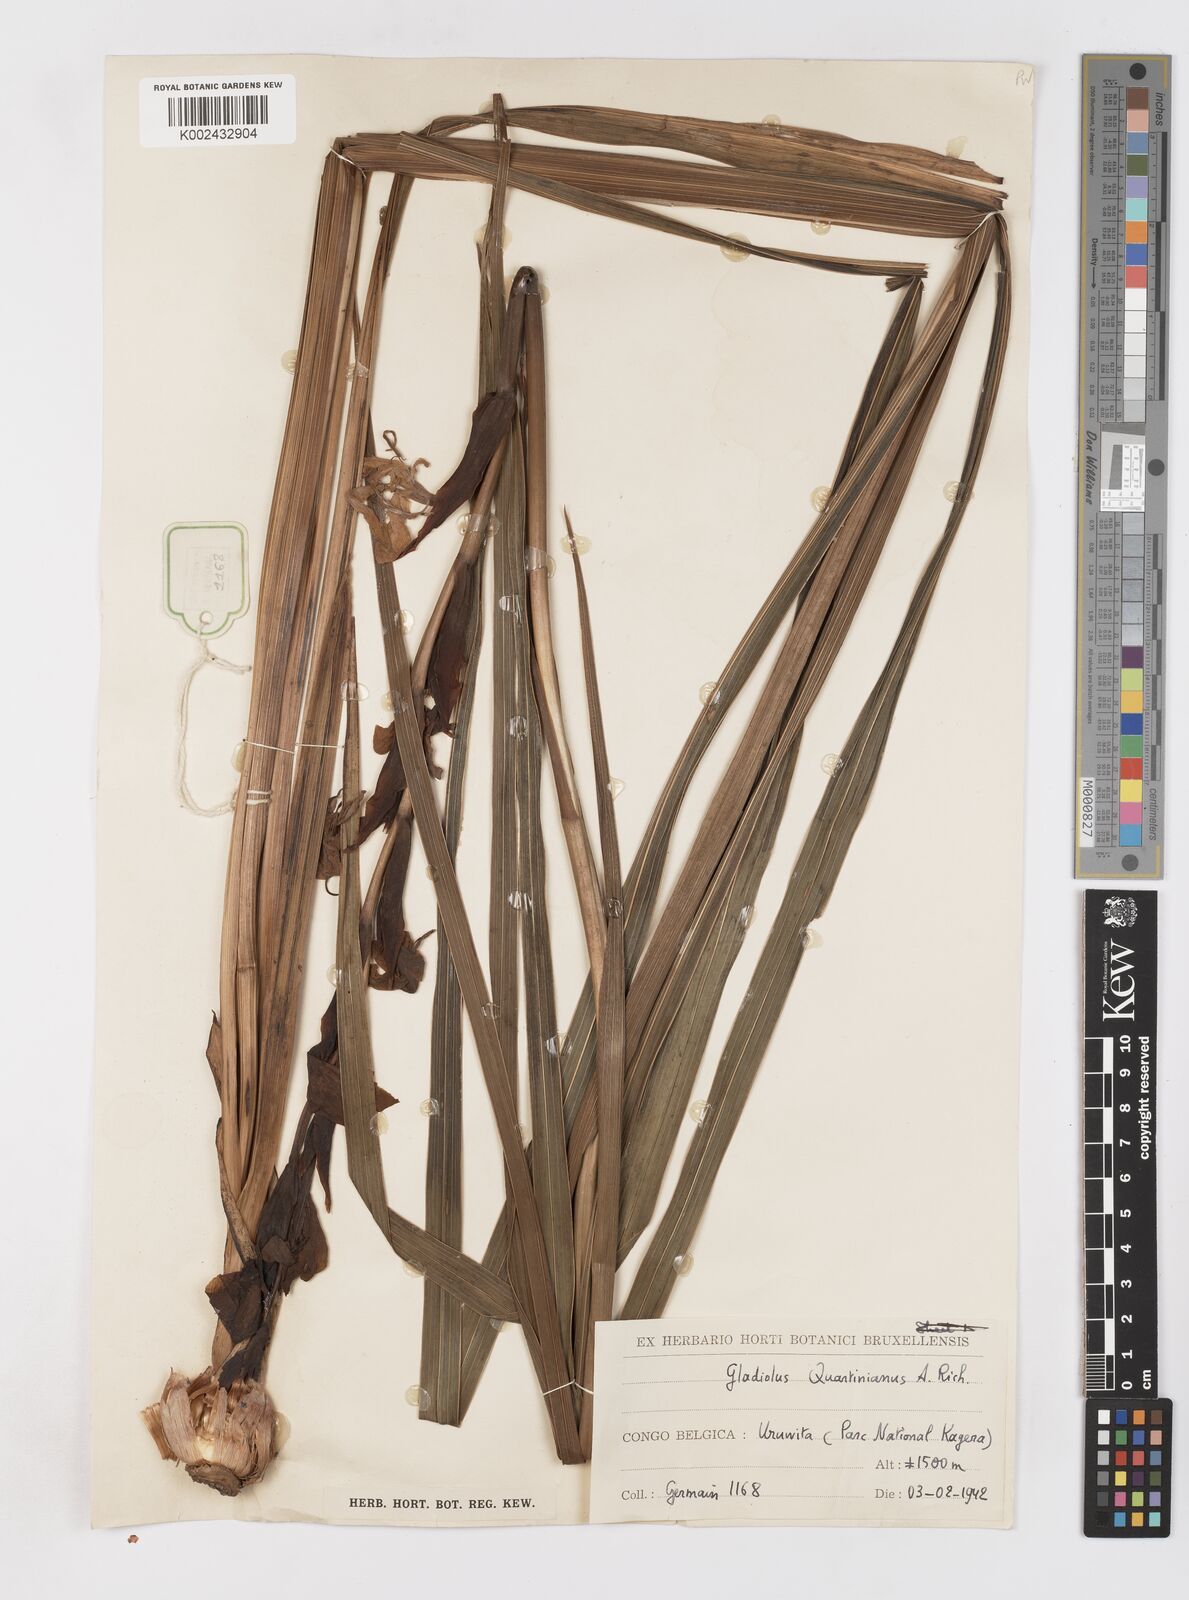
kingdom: Plantae
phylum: Tracheophyta
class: Liliopsida
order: Asparagales
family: Iridaceae
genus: Gladiolus
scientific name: Gladiolus dalenii
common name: Cornflag
